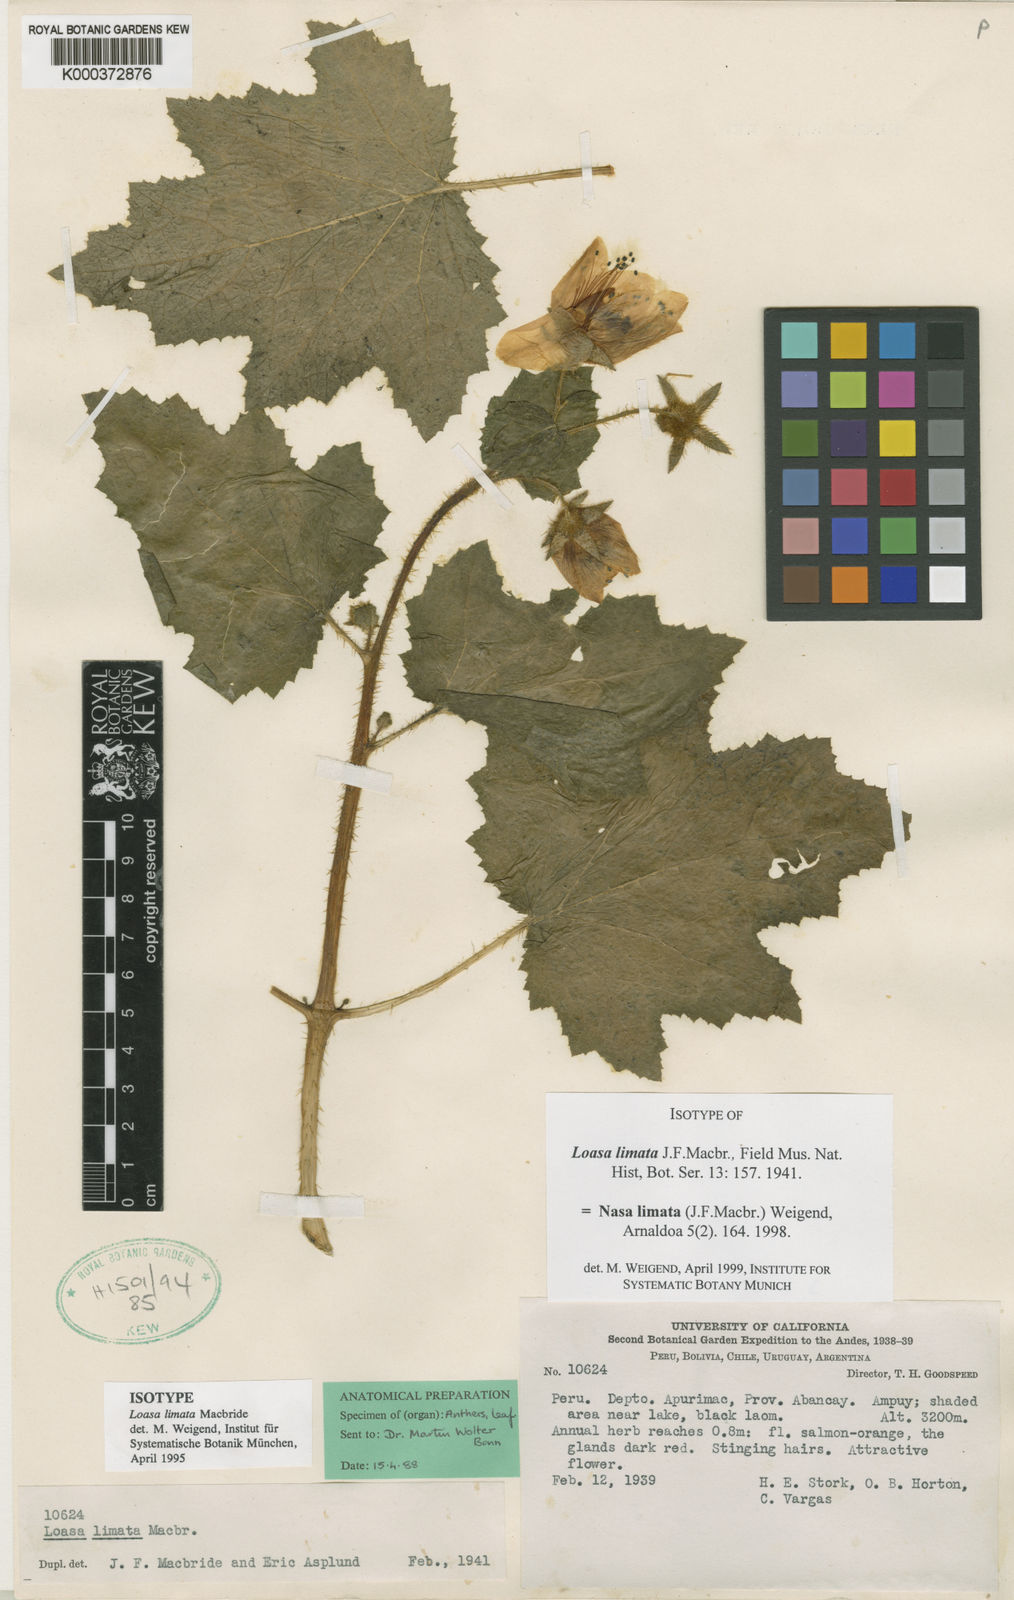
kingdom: Plantae
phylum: Tracheophyta
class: Magnoliopsida
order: Cornales
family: Loasaceae
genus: Nasa
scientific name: Nasa limata
